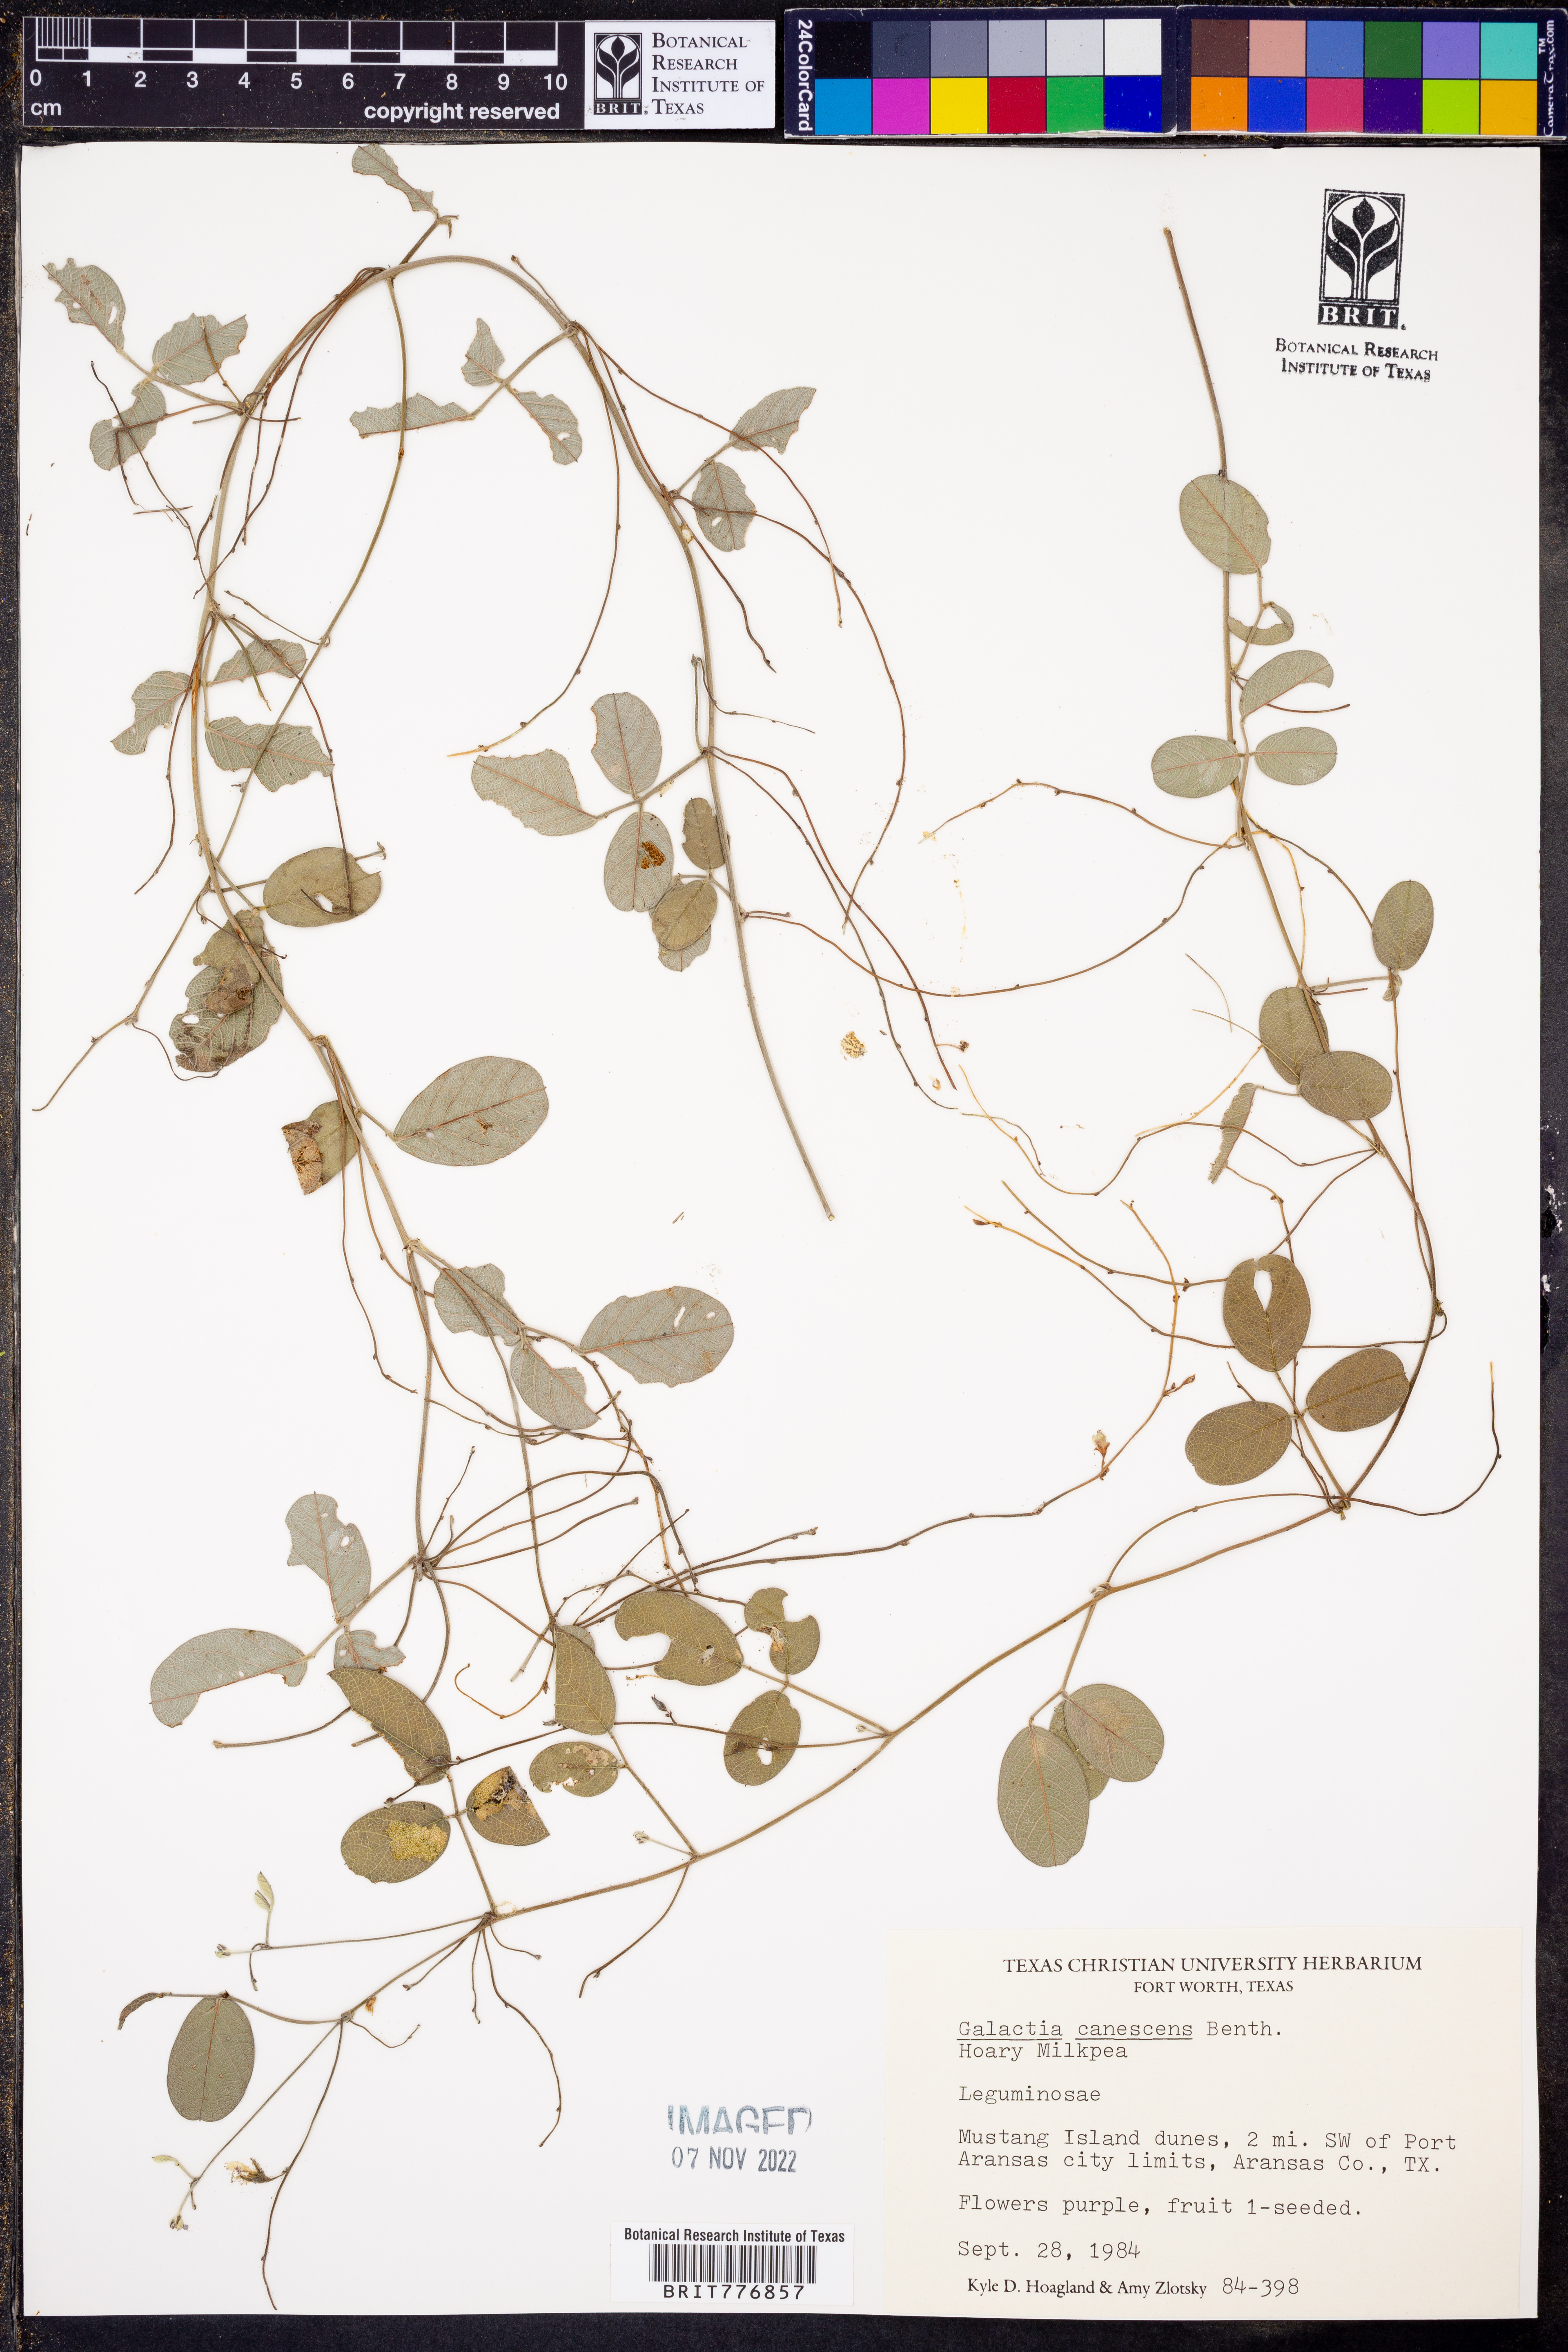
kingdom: Plantae
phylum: Tracheophyta
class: Magnoliopsida
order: Fabales
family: Fabaceae
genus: Galactia
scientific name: Galactia canescens
